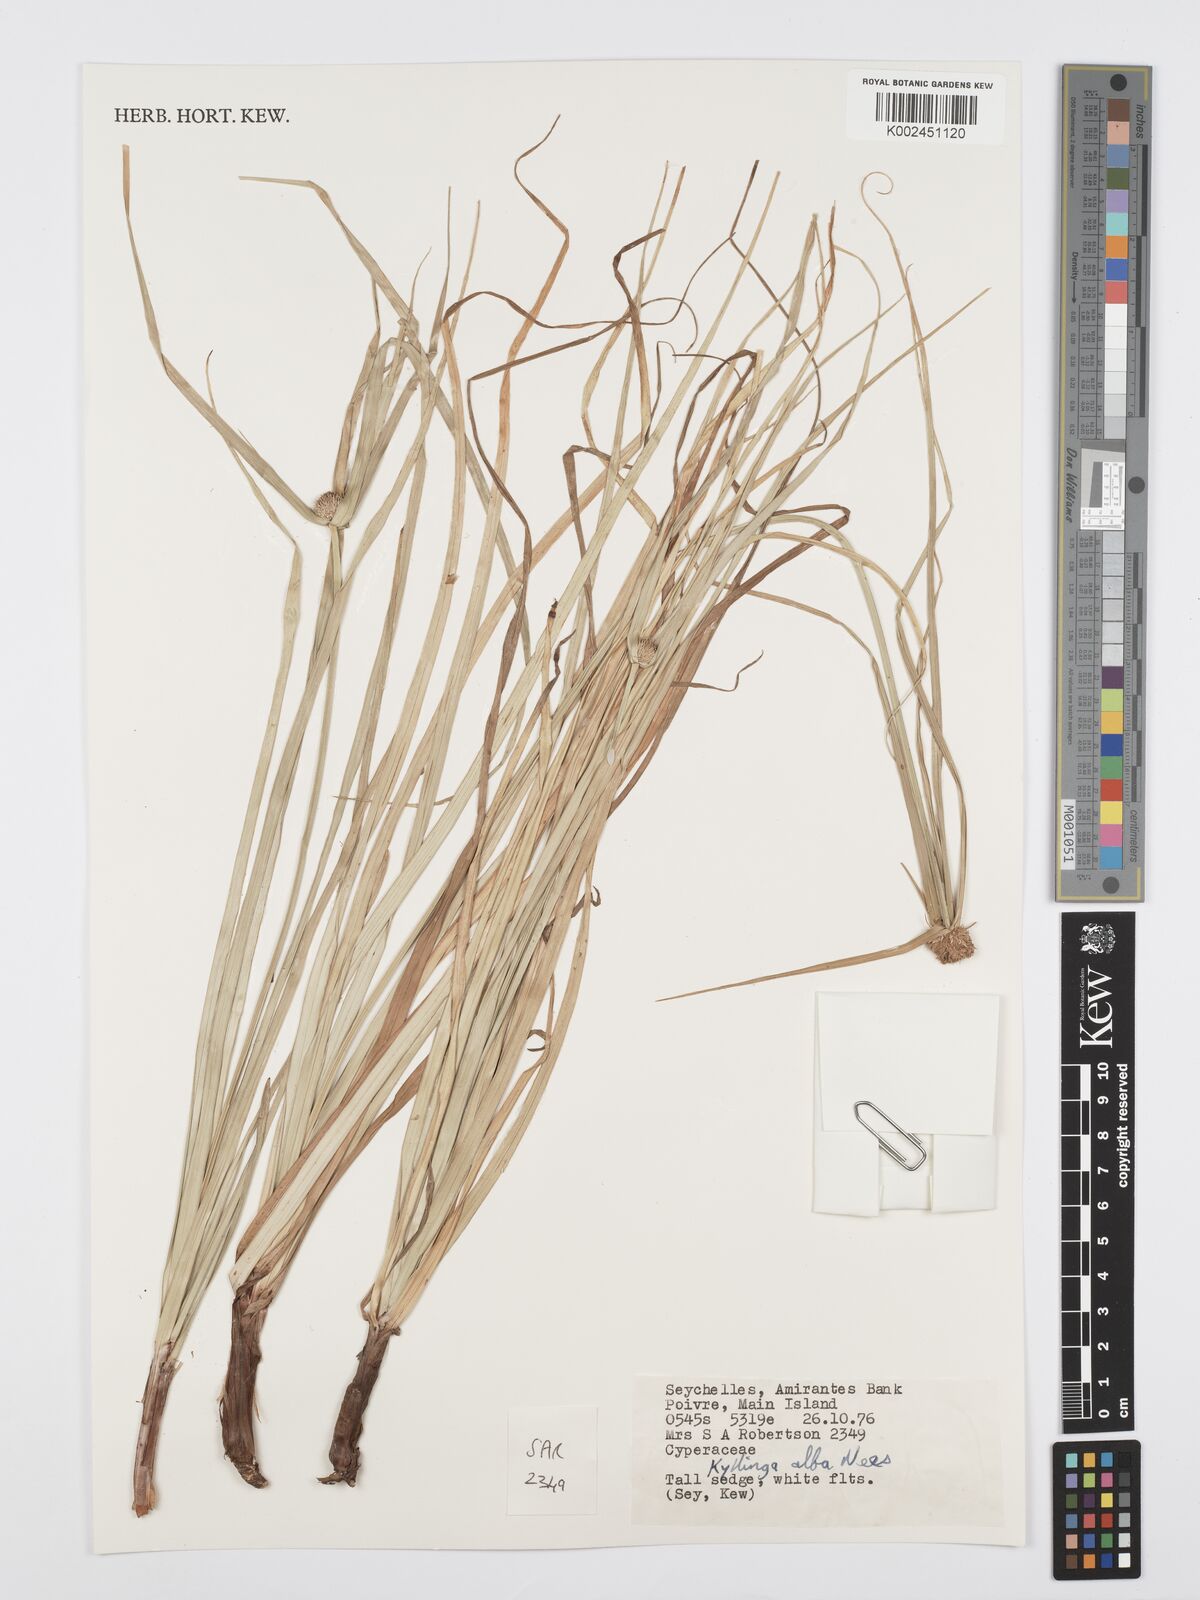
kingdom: Plantae
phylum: Tracheophyta
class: Liliopsida
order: Poales
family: Cyperaceae
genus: Cyperus
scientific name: Cyperus
